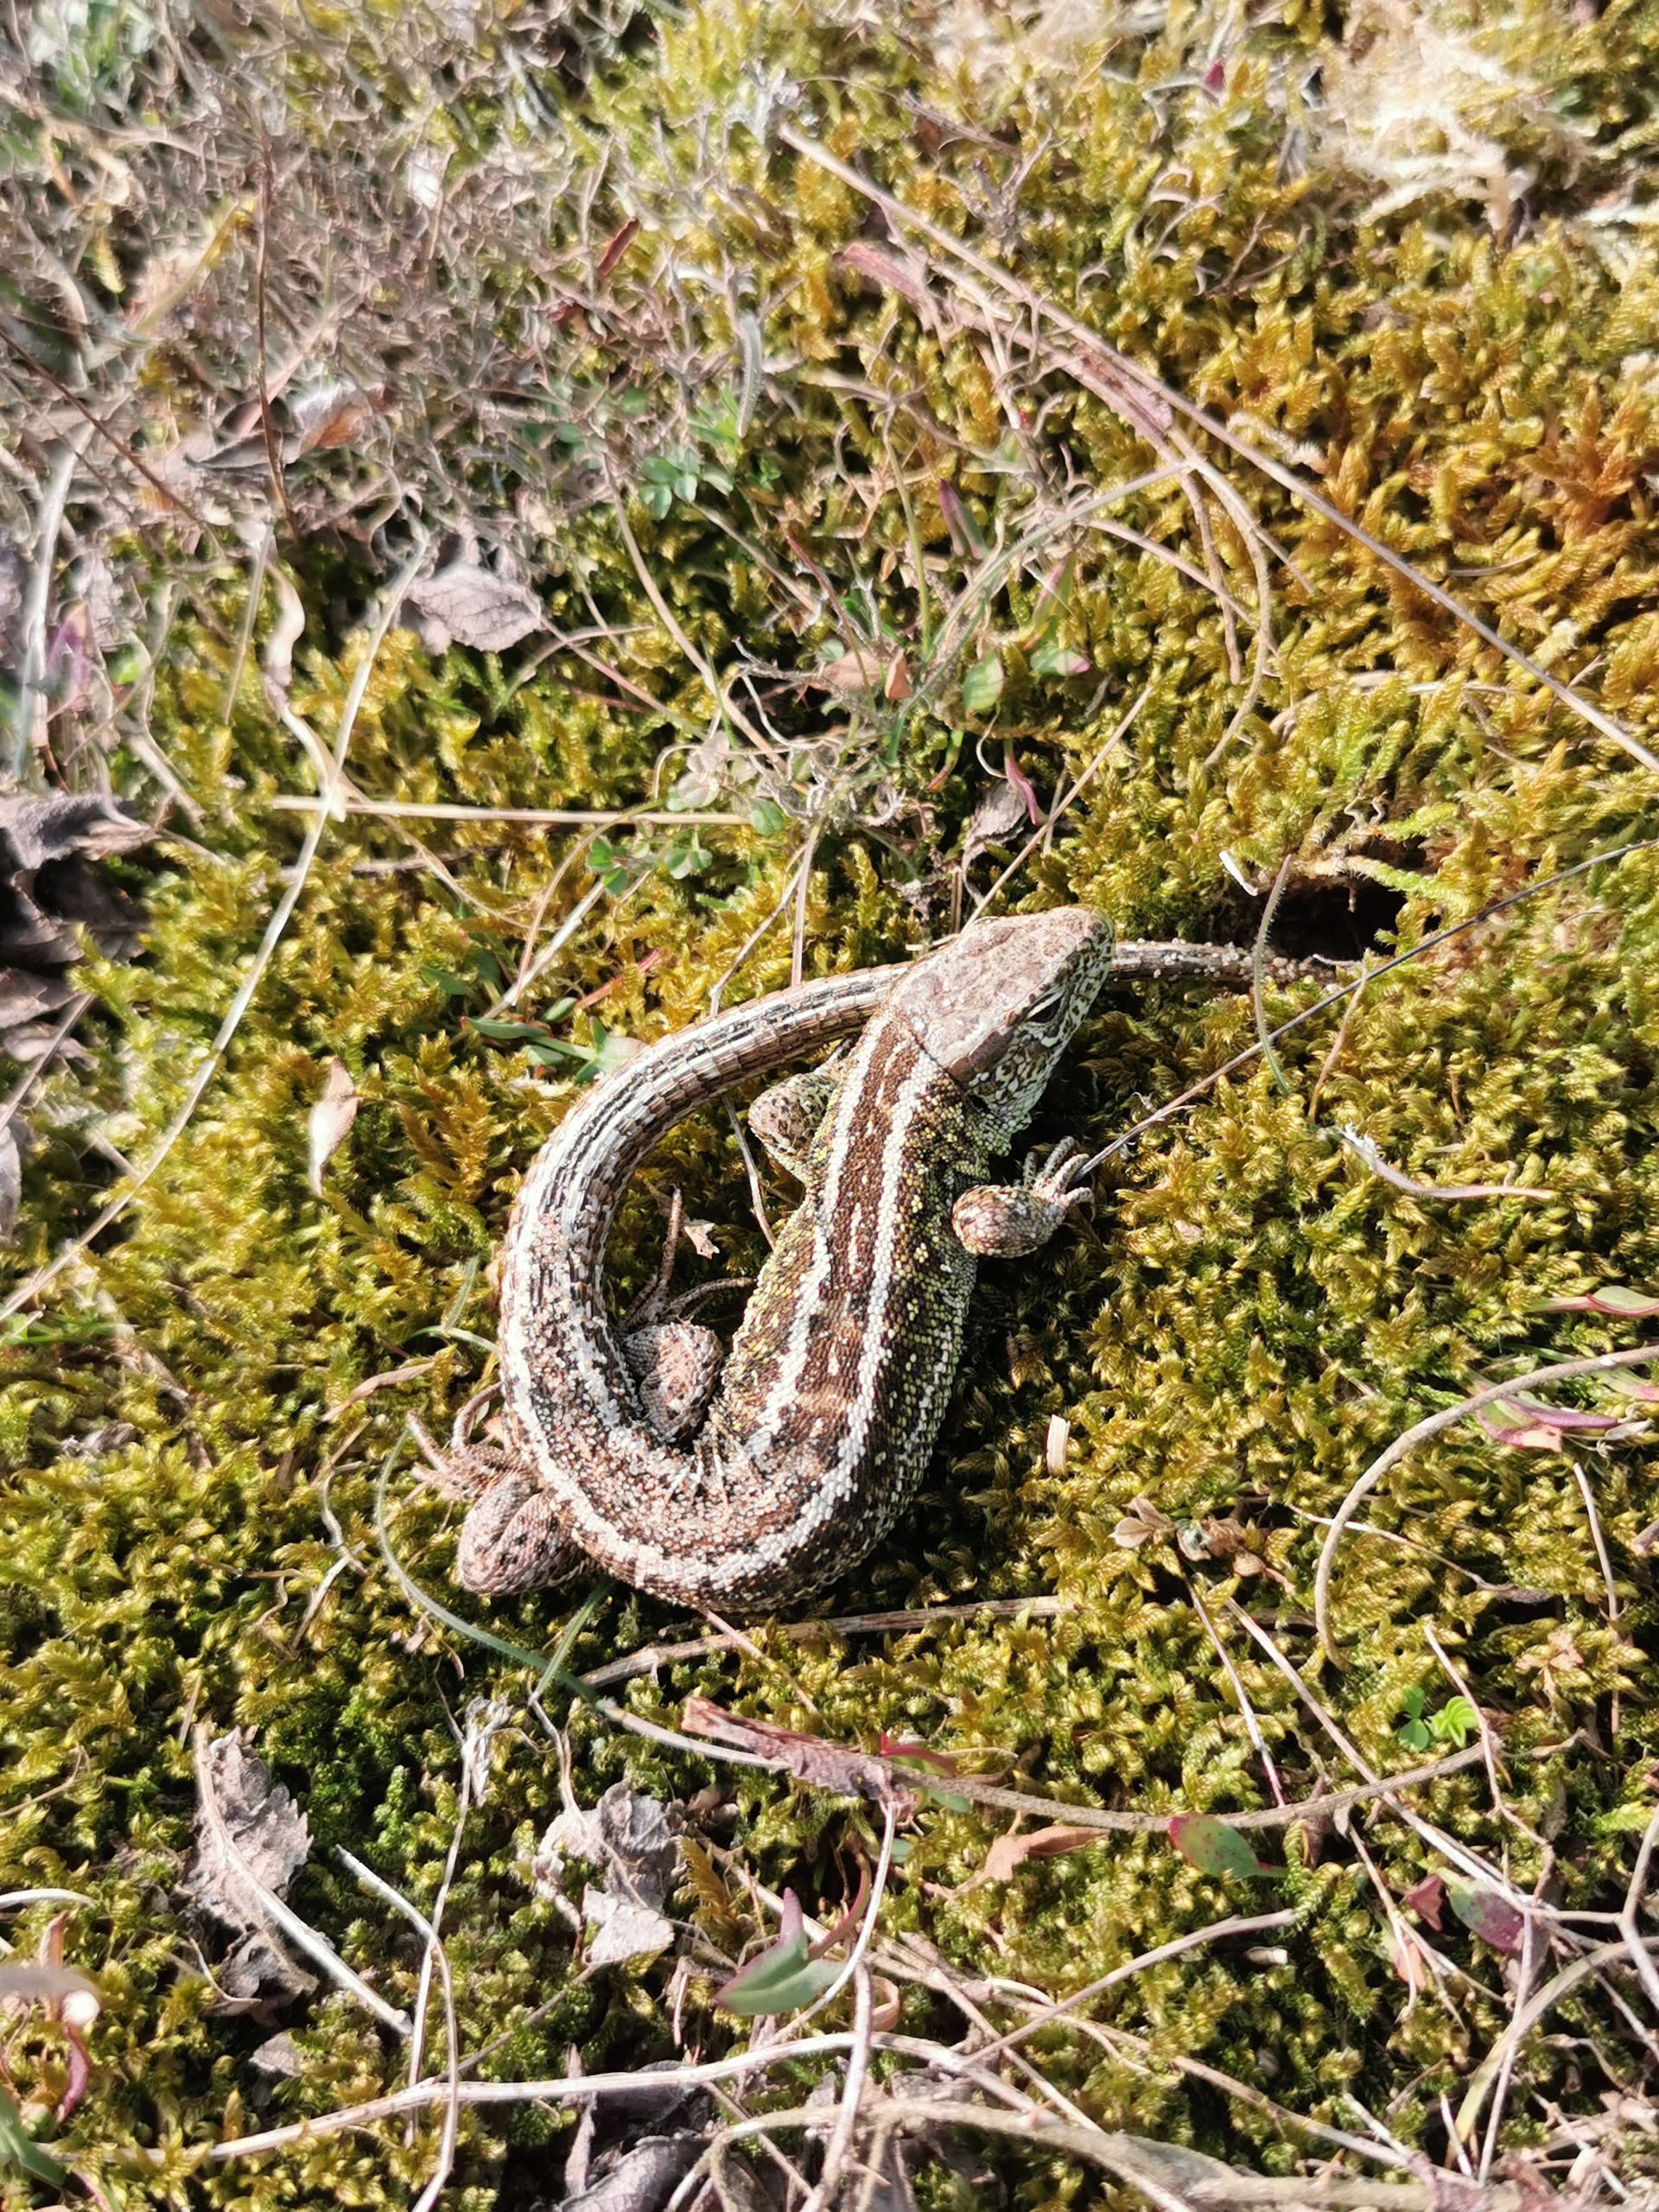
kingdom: Animalia
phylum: Chordata
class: Squamata
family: Lacertidae
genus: Lacerta
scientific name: Lacerta agilis
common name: Markfirben
